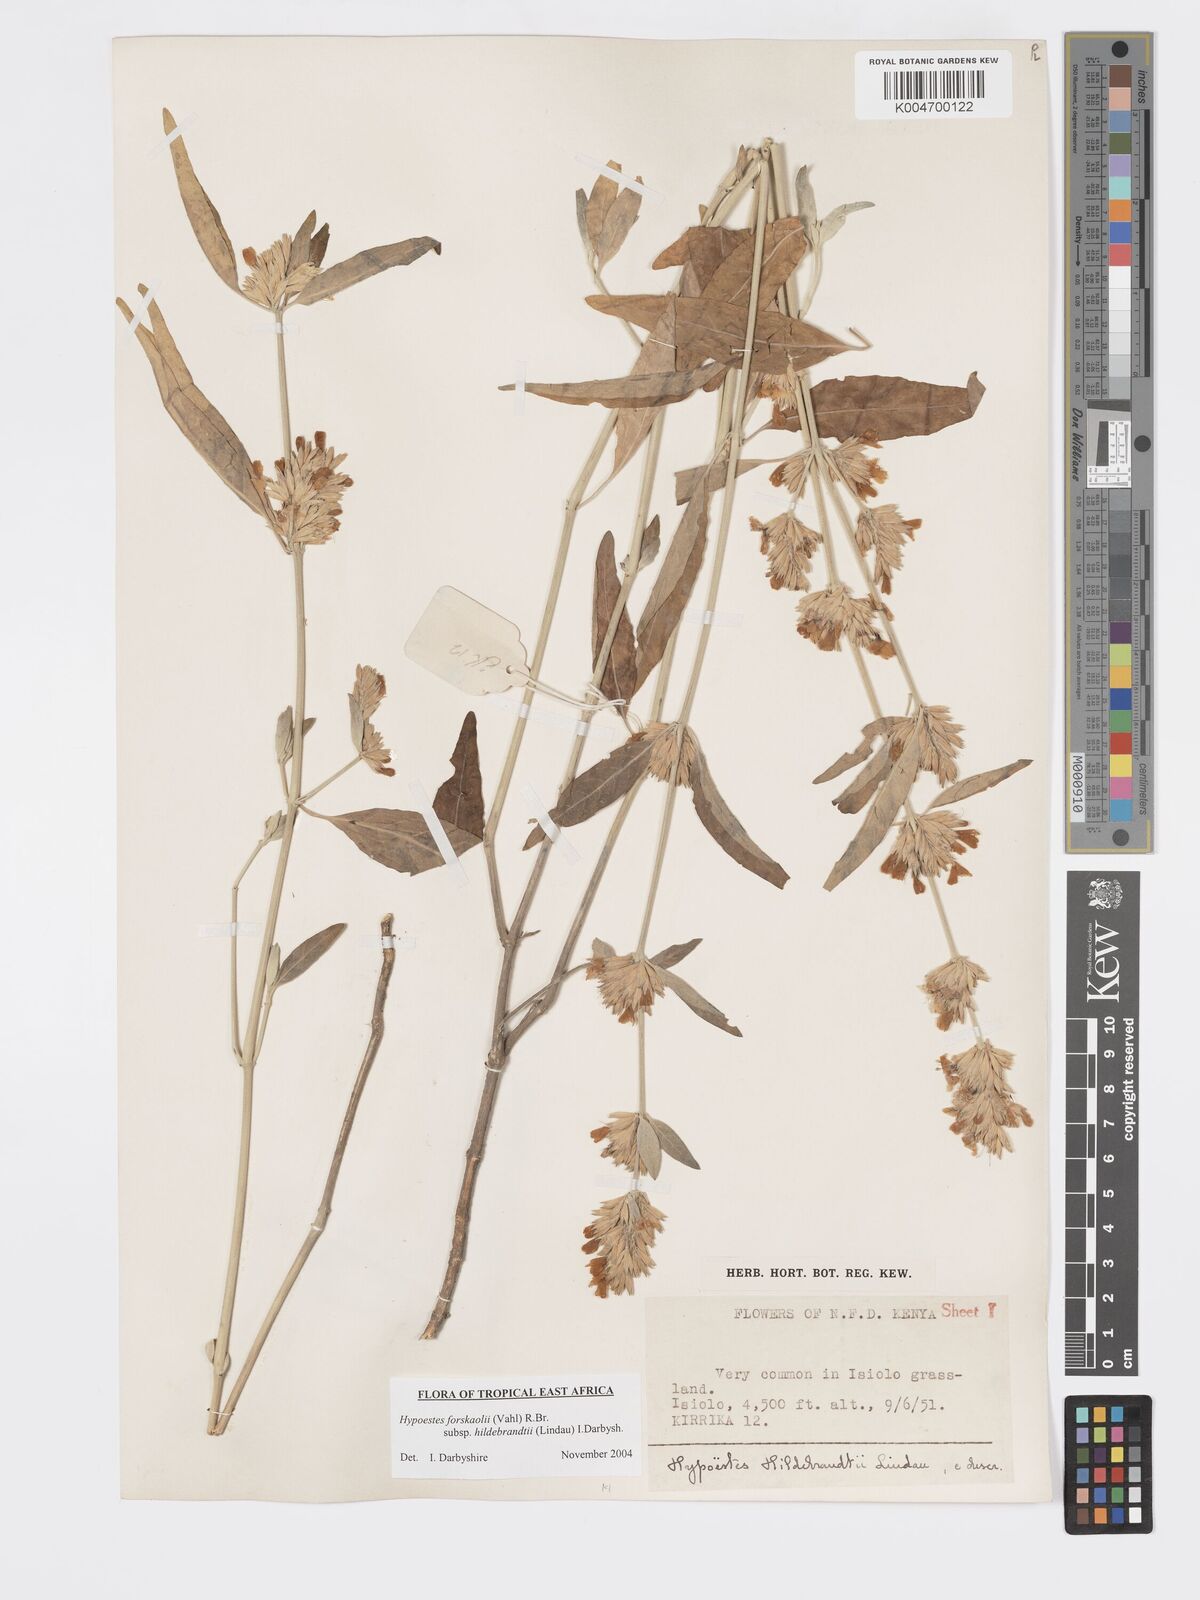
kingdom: Plantae
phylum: Tracheophyta
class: Magnoliopsida
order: Lamiales
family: Acanthaceae
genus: Hypoestes
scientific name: Hypoestes forskaolii
